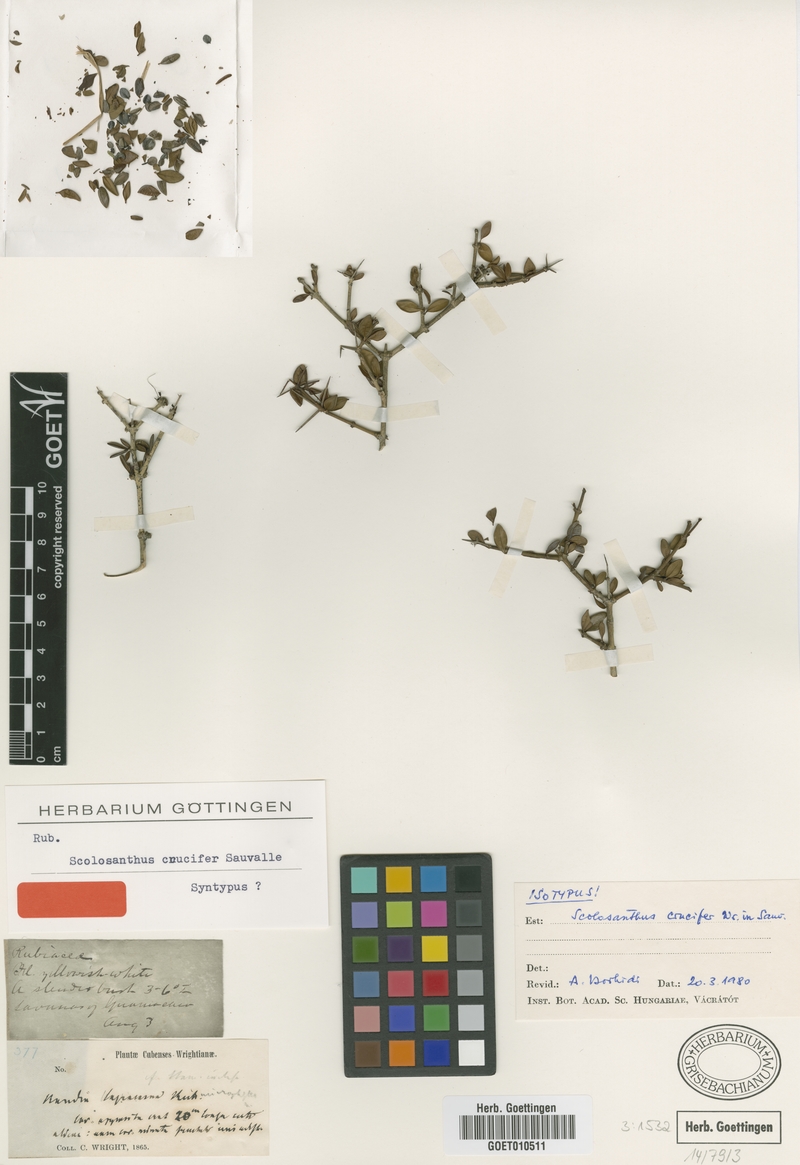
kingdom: Plantae
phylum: Tracheophyta
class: Magnoliopsida
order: Gentianales
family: Rubiaceae
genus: Scolosanthus
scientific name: Scolosanthus crucifer
